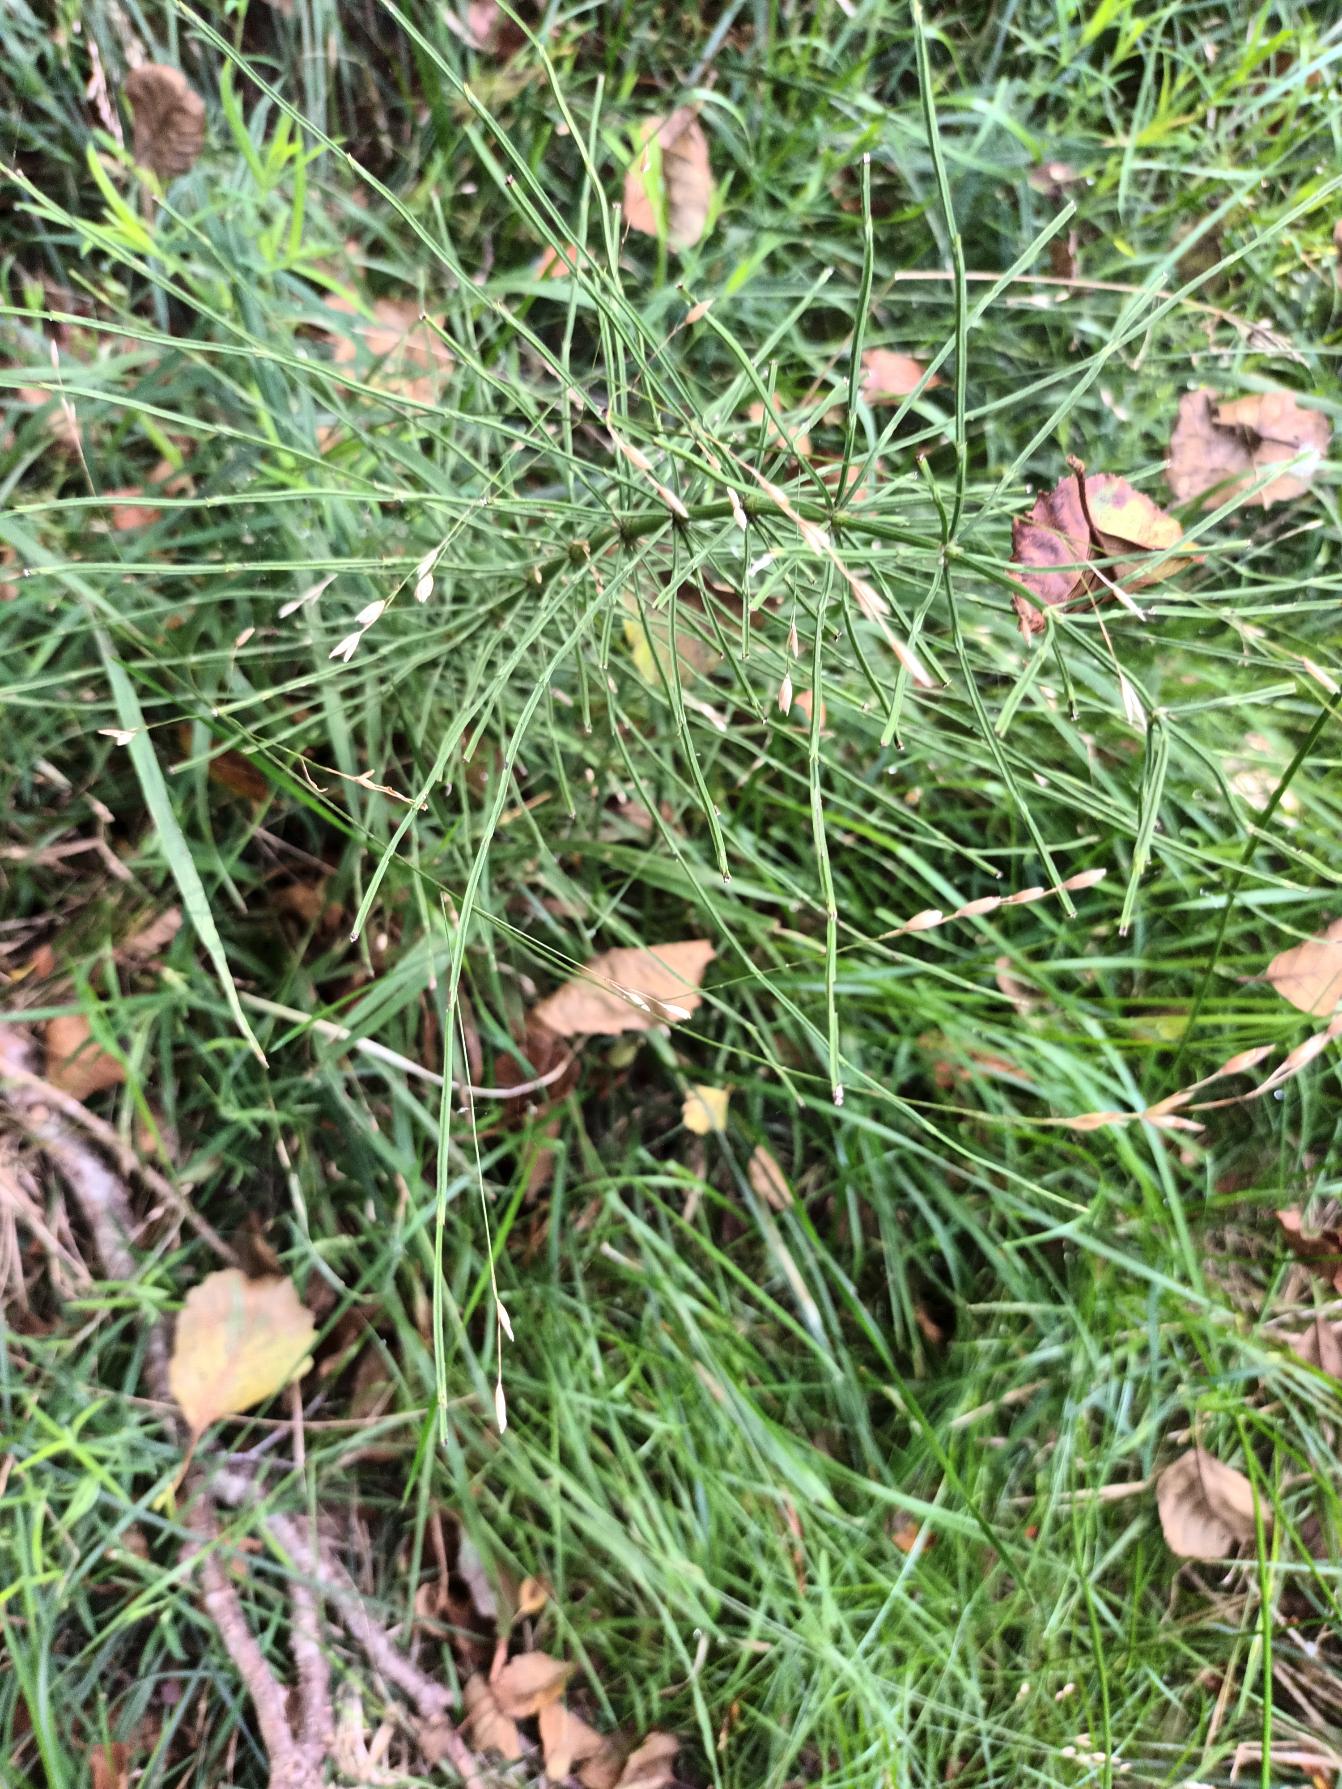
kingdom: Plantae
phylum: Tracheophyta
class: Polypodiopsida
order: Equisetales
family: Equisetaceae
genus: Equisetum
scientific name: Equisetum arvense
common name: Ager-padderok
